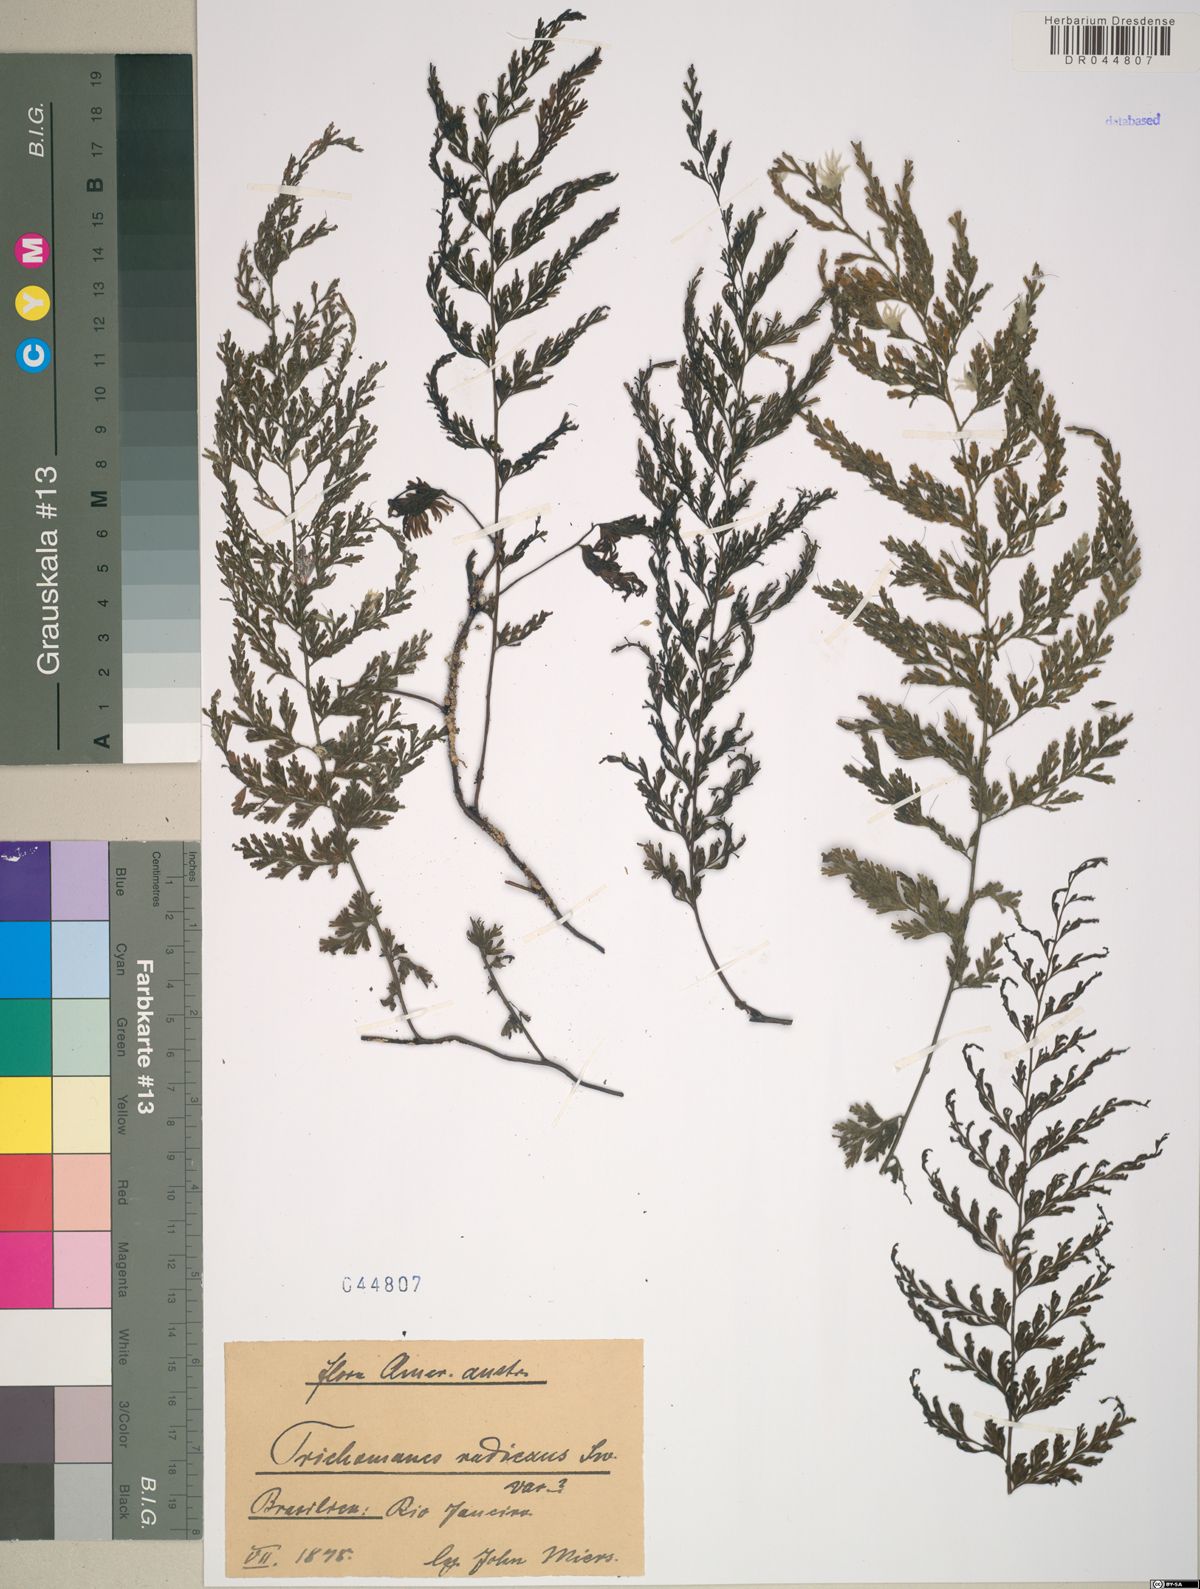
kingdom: Plantae
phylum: Tracheophyta
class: Polypodiopsida
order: Hymenophyllales
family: Hymenophyllaceae
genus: Vandenboschia
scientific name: Vandenboschia radicans
